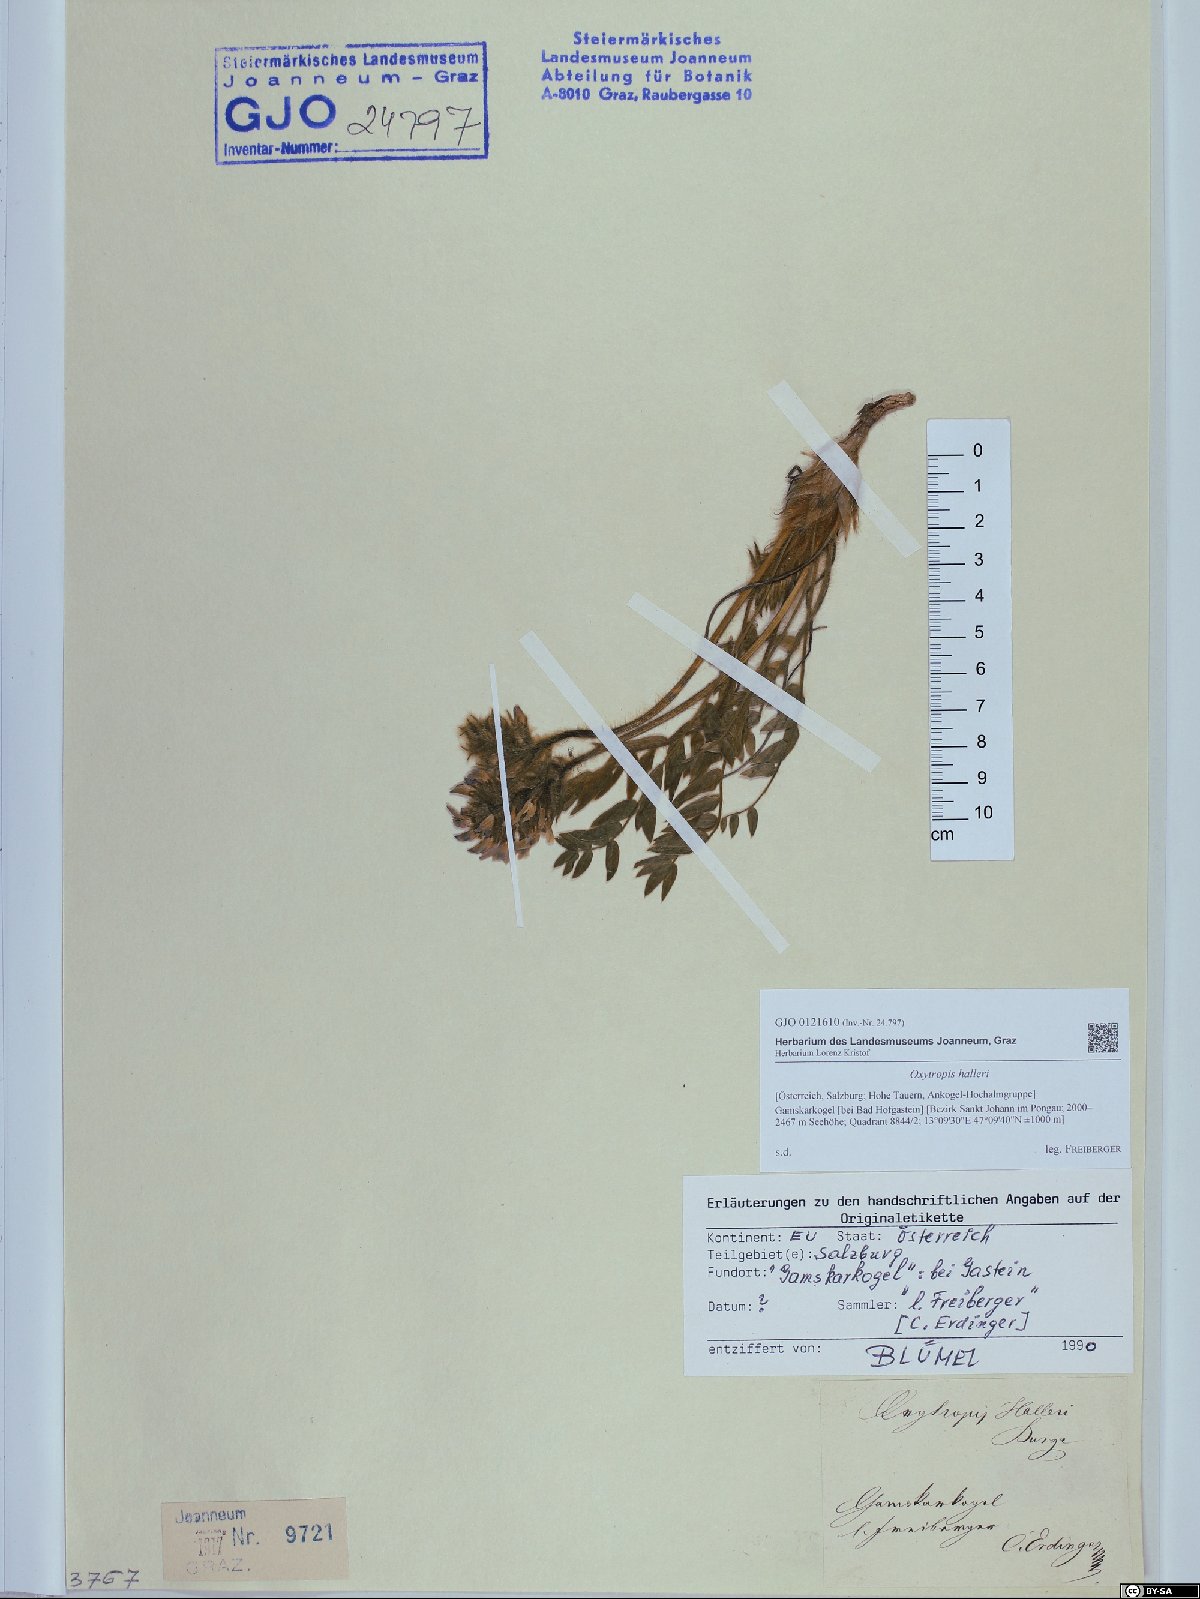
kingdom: Plantae
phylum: Tracheophyta
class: Magnoliopsida
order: Fabales
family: Fabaceae
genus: Oxytropis
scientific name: Oxytropis halleri
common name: Purple oxytropis
